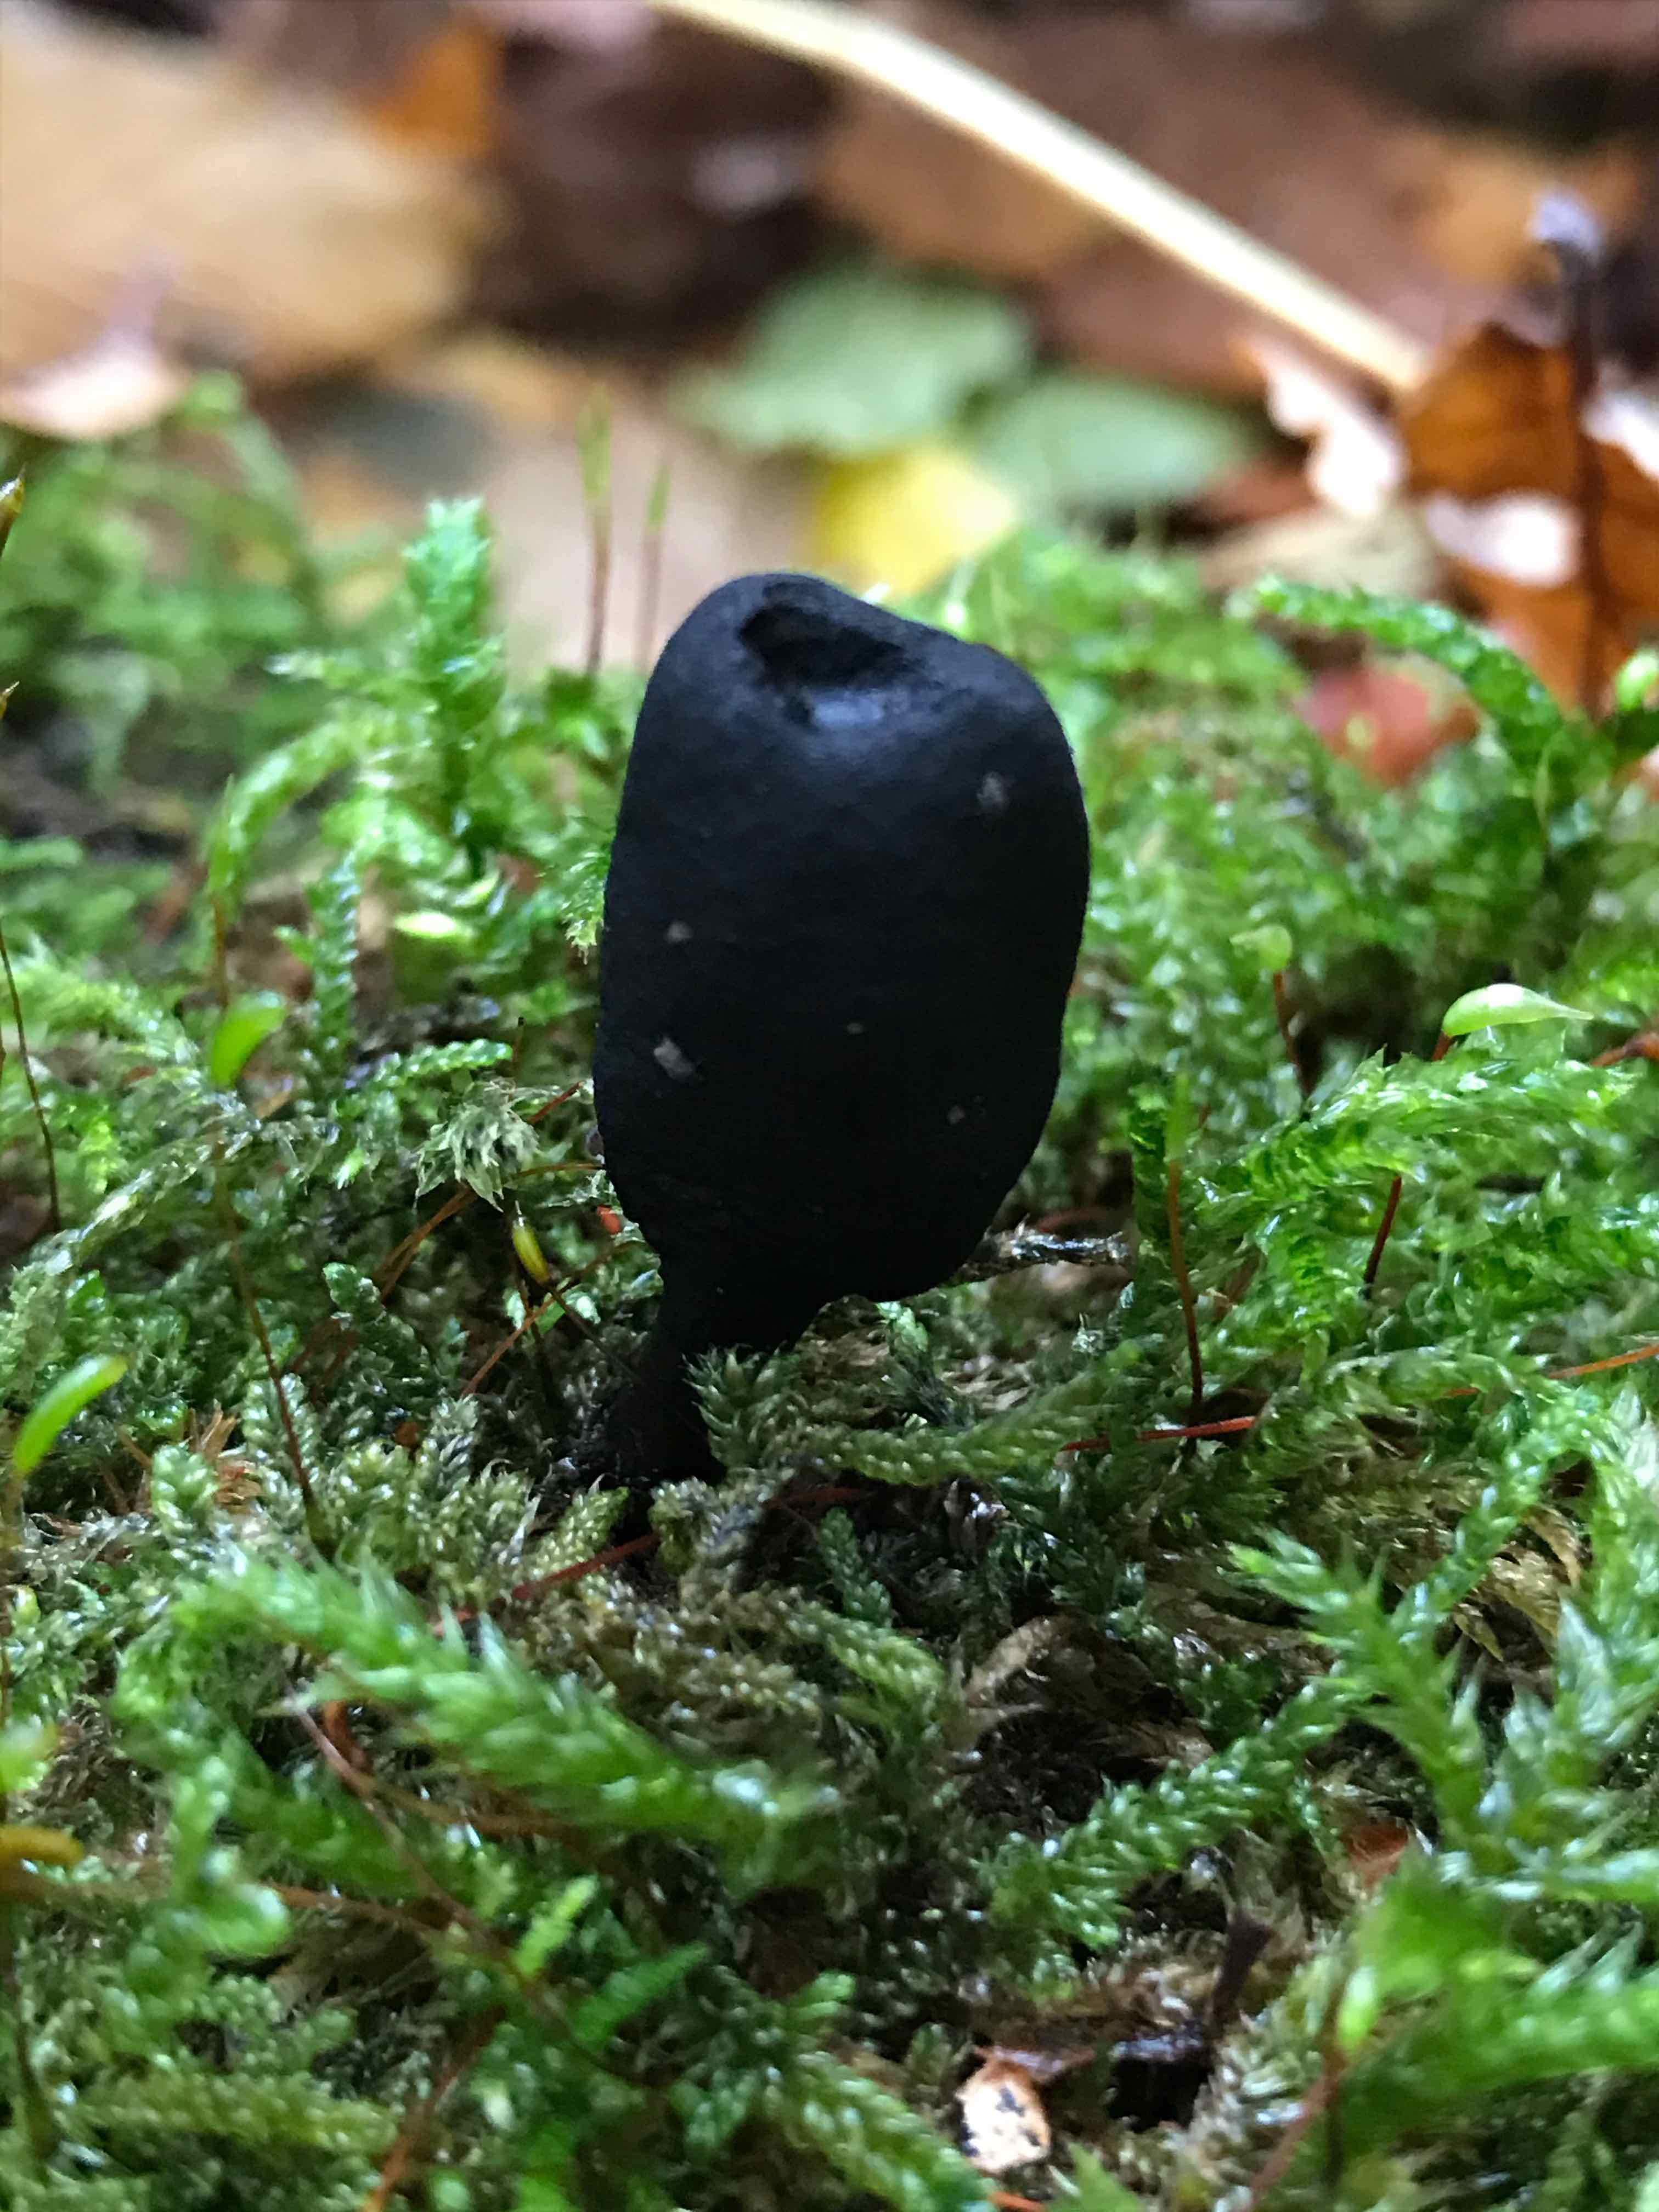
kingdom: Fungi
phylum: Ascomycota
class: Sordariomycetes
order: Xylariales
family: Xylariaceae
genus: Xylaria
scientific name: Xylaria polymorpha
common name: kølle-stødsvamp
